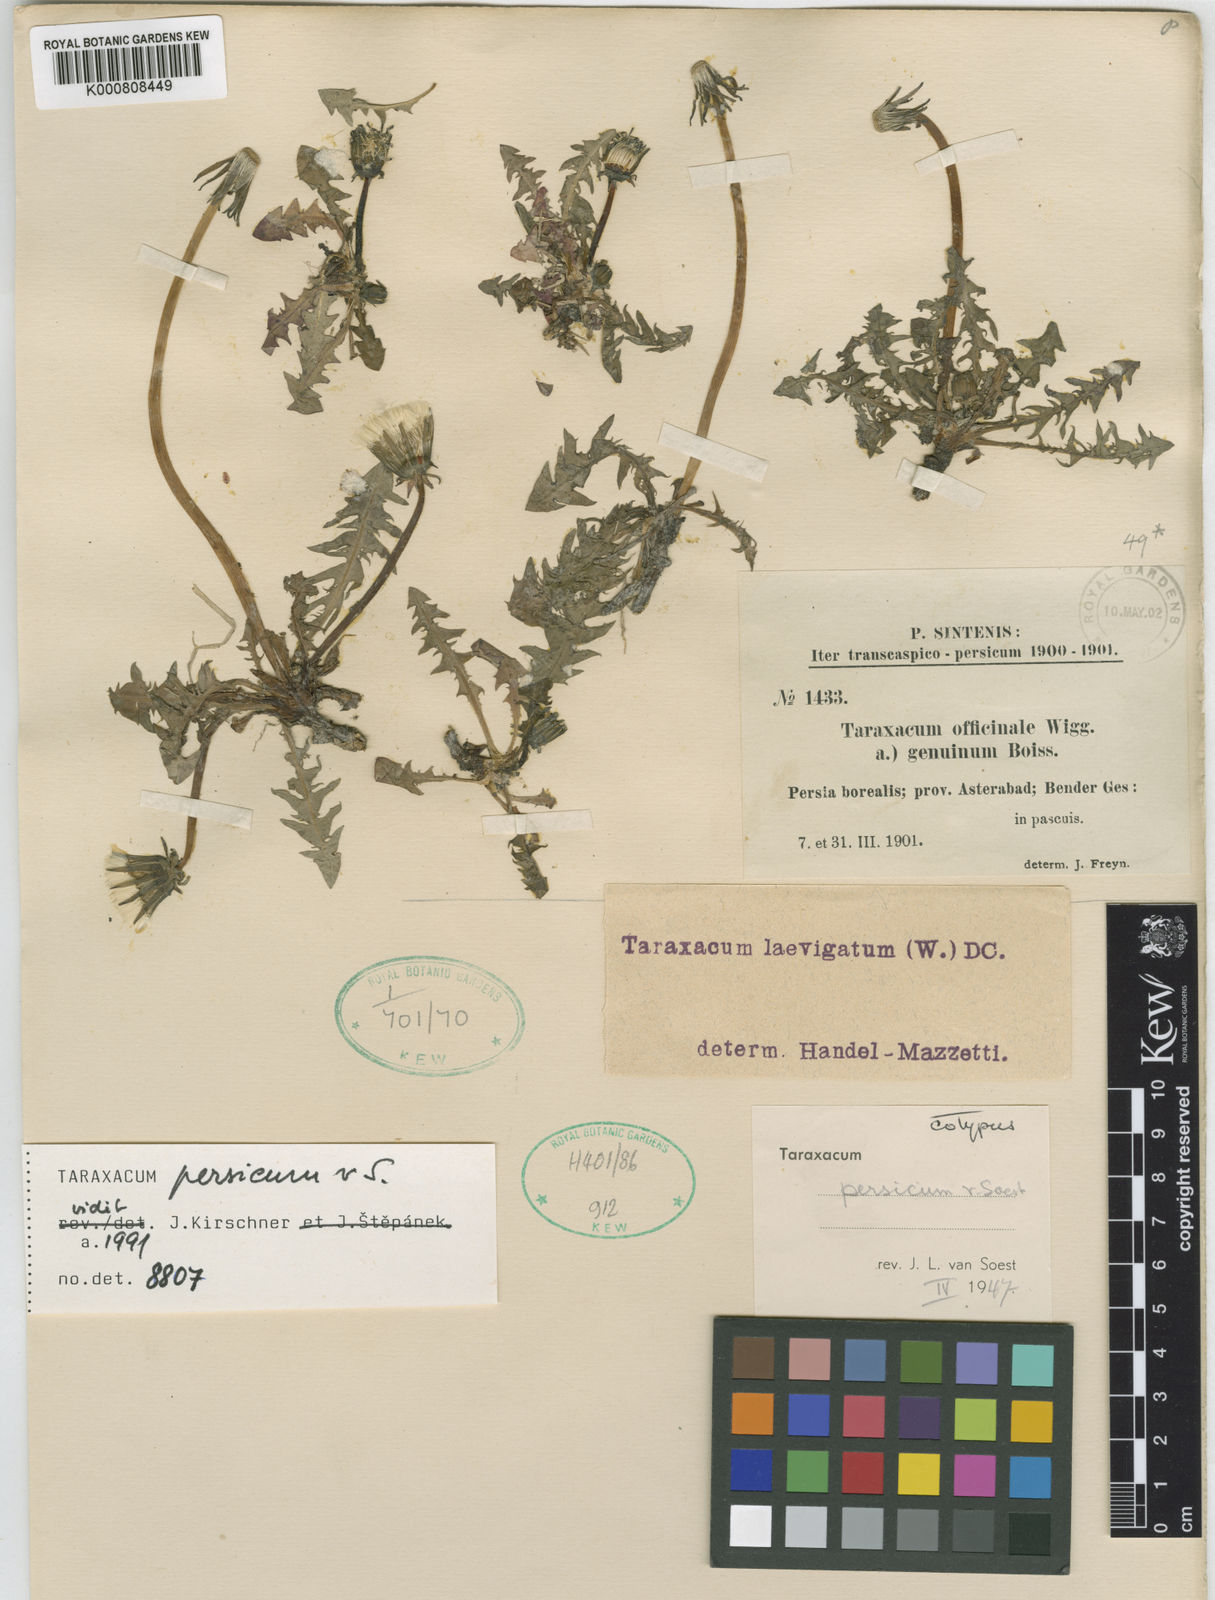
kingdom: Plantae
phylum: Tracheophyta
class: Magnoliopsida
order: Asterales
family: Asteraceae
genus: Taraxacum
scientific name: Taraxacum persicum
